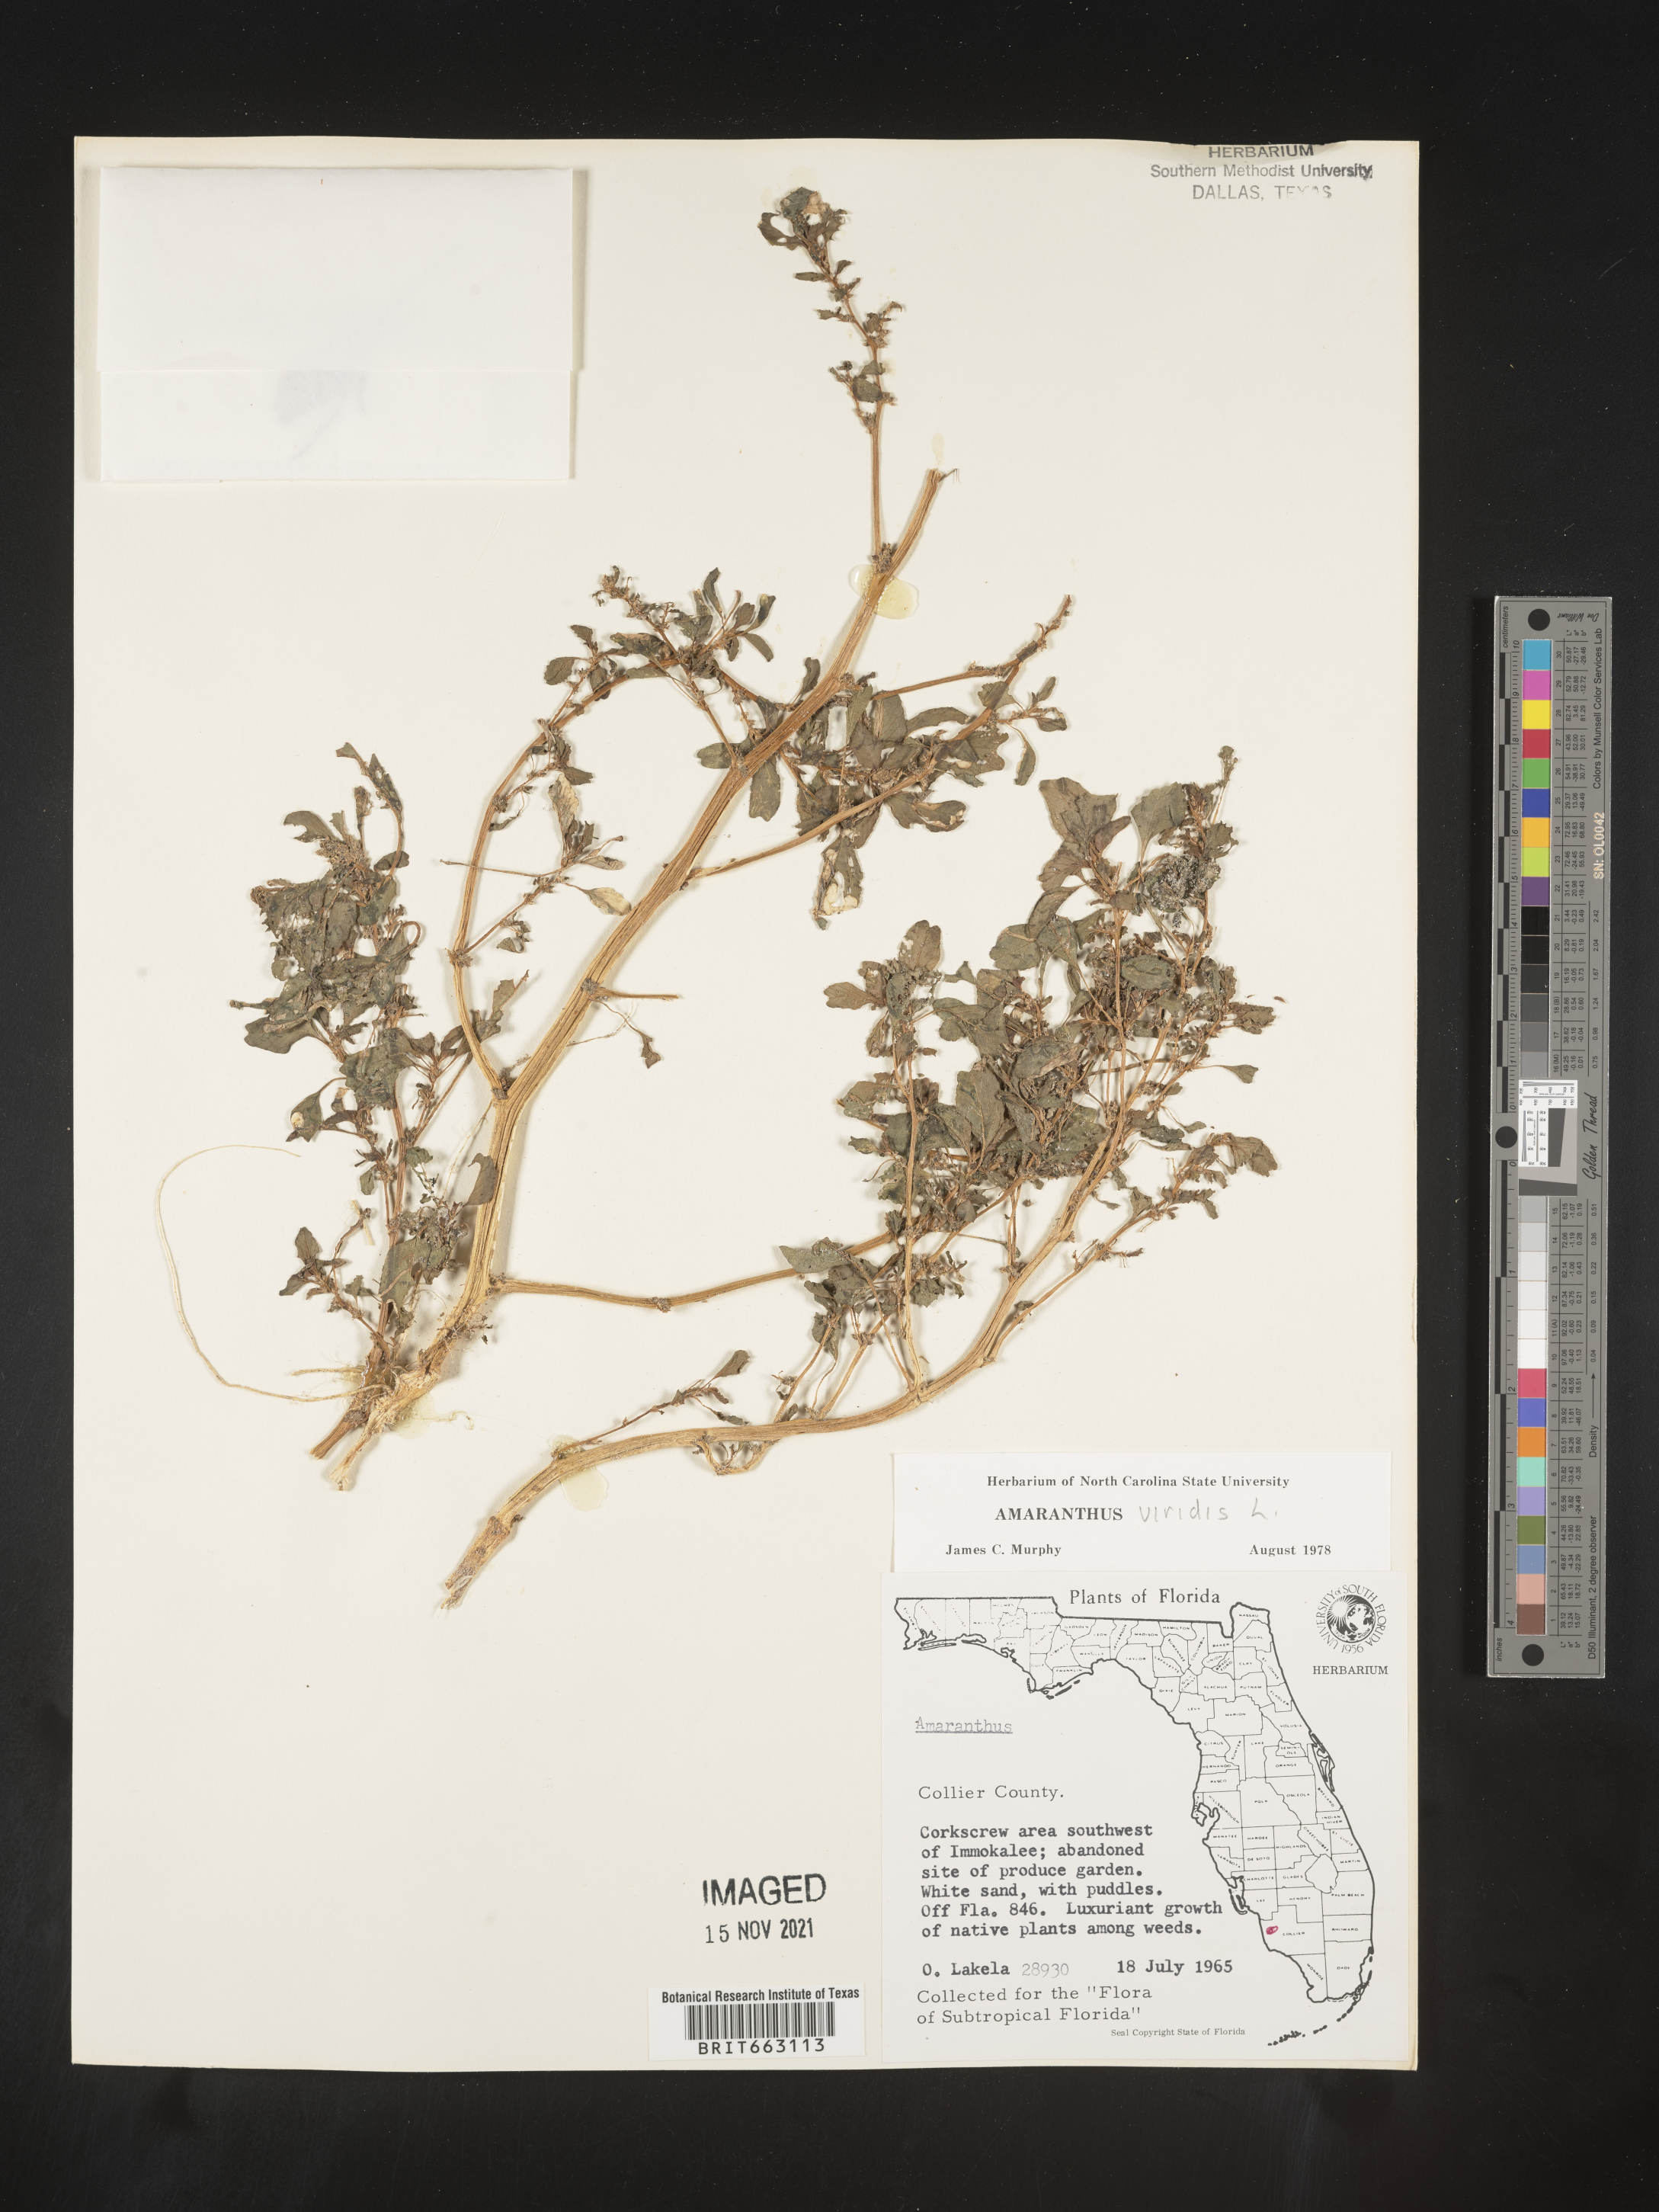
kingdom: Plantae
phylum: Tracheophyta
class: Magnoliopsida
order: Caryophyllales
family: Amaranthaceae
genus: Amaranthus
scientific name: Amaranthus viridis
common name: Slender amaranth
